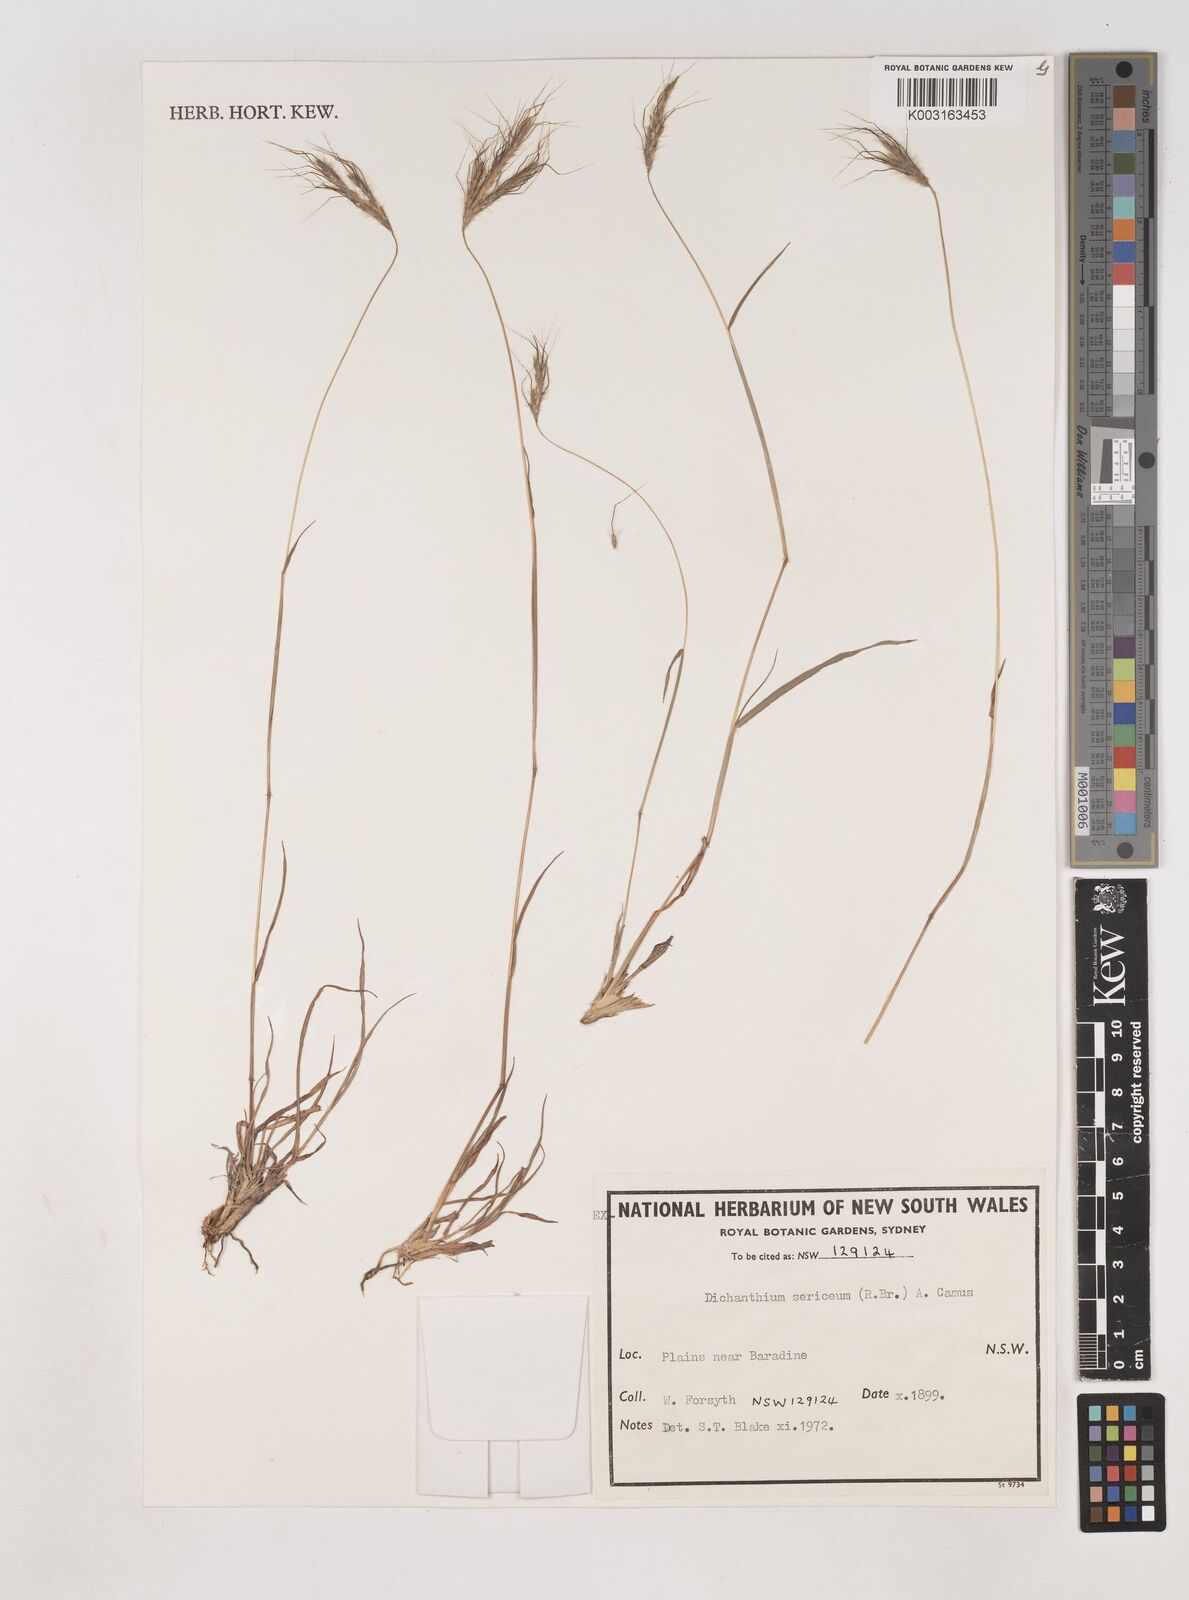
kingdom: Plantae
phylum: Tracheophyta
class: Liliopsida
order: Poales
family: Poaceae
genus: Dichanthium
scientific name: Dichanthium sericeum
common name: Silky bluestem
